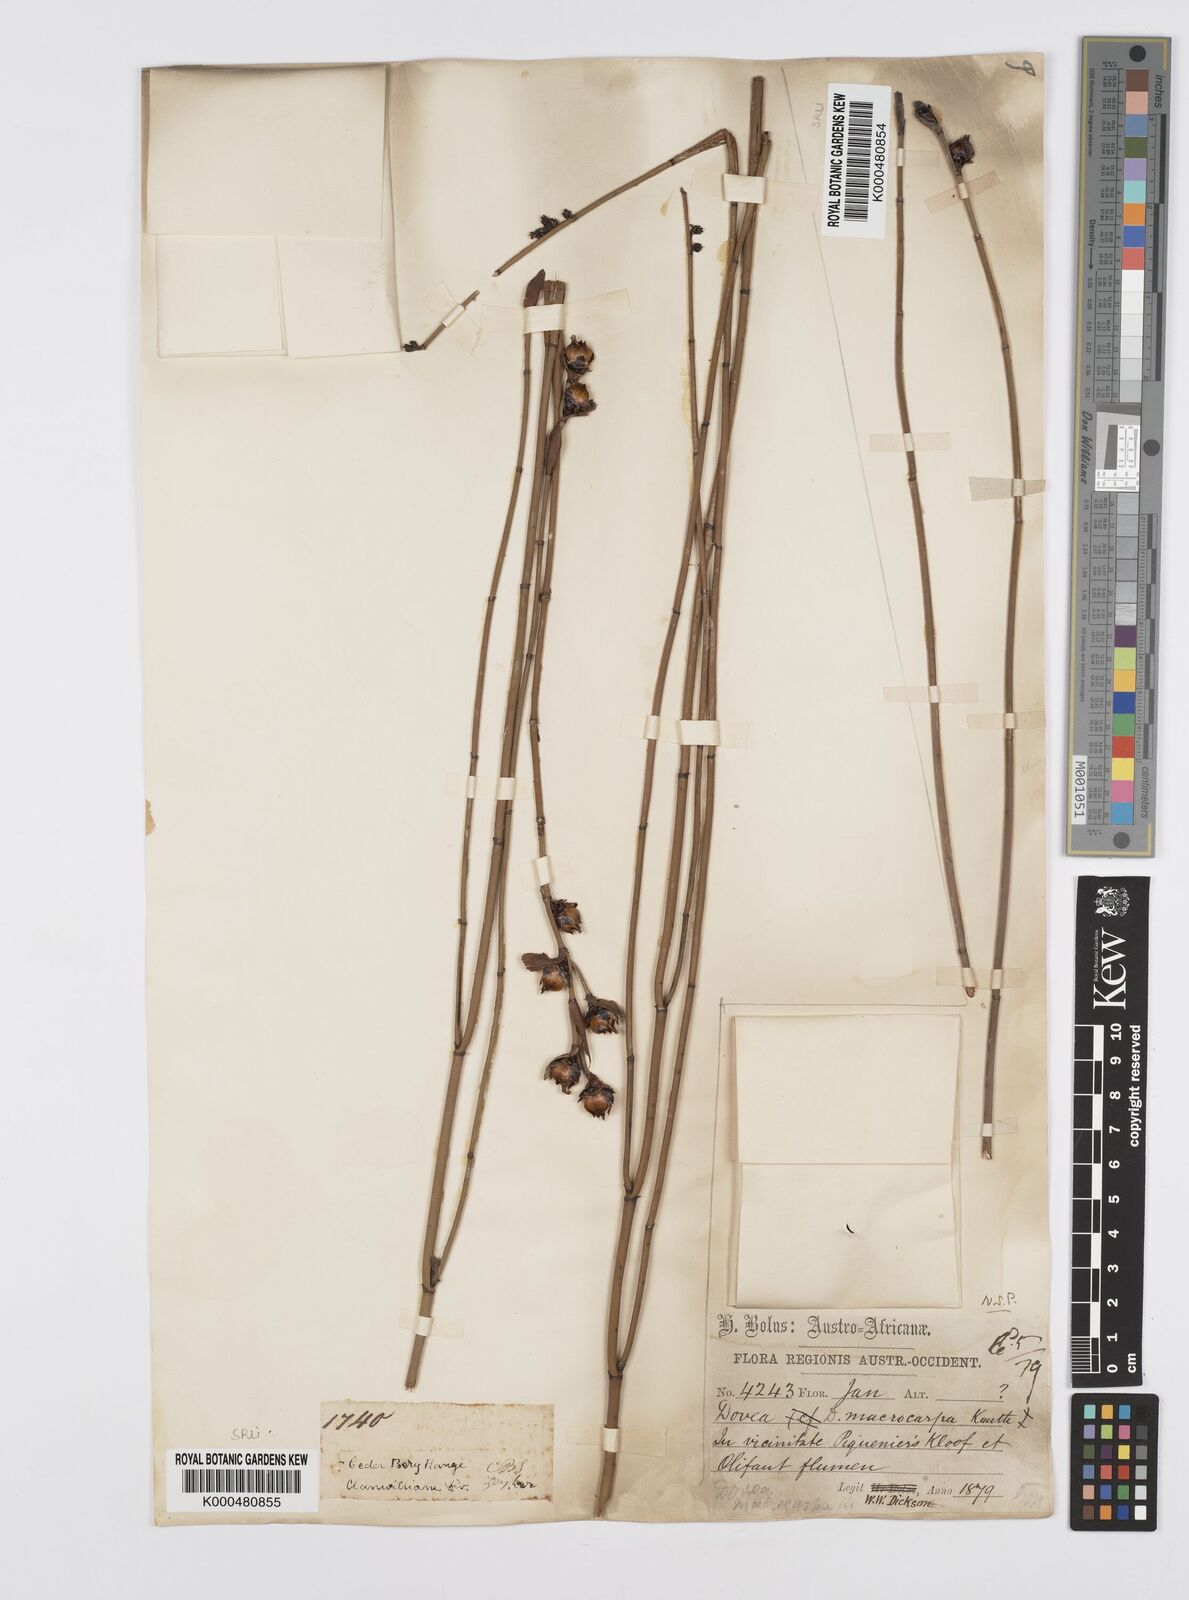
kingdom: Plantae
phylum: Tracheophyta
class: Liliopsida
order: Poales
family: Restionaceae
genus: Elegia
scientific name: Elegia macrocarpa
